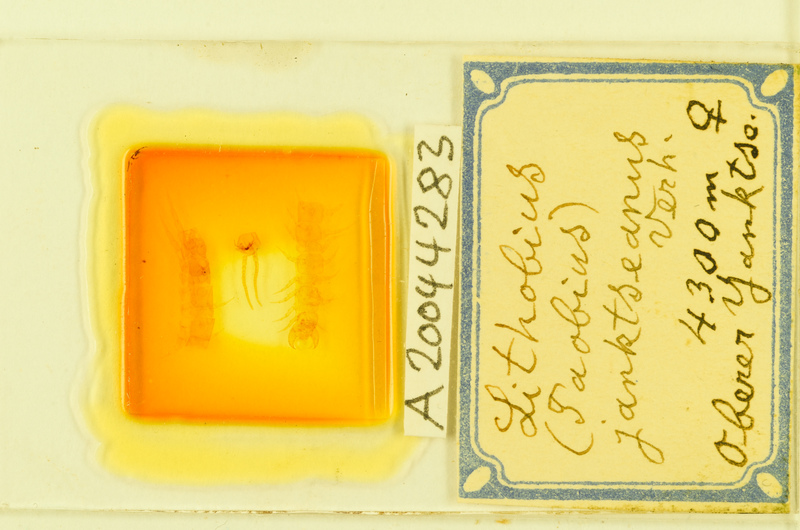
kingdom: Animalia
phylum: Arthropoda
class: Chilopoda
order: Lithobiomorpha
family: Lithobiidae
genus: Lithobius
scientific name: Lithobius
